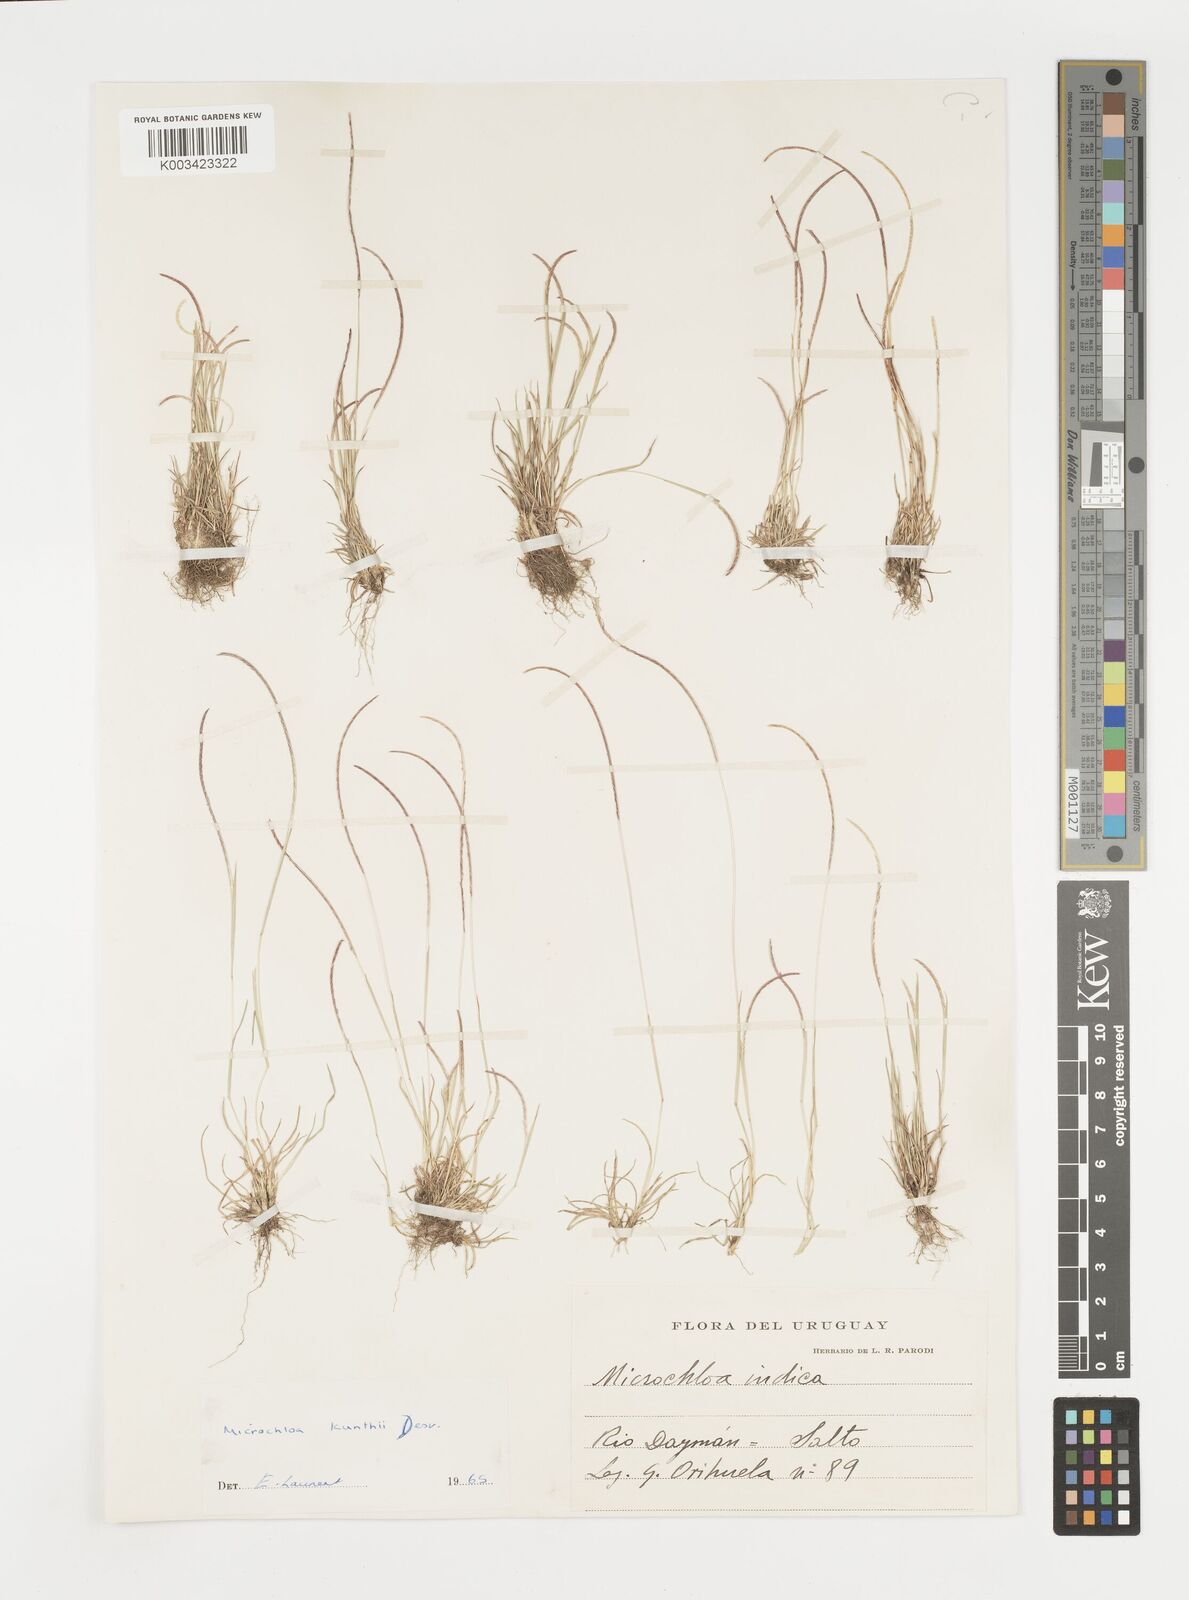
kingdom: Plantae
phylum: Tracheophyta
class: Liliopsida
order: Poales
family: Poaceae
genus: Microchloa
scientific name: Microchloa kunthii
